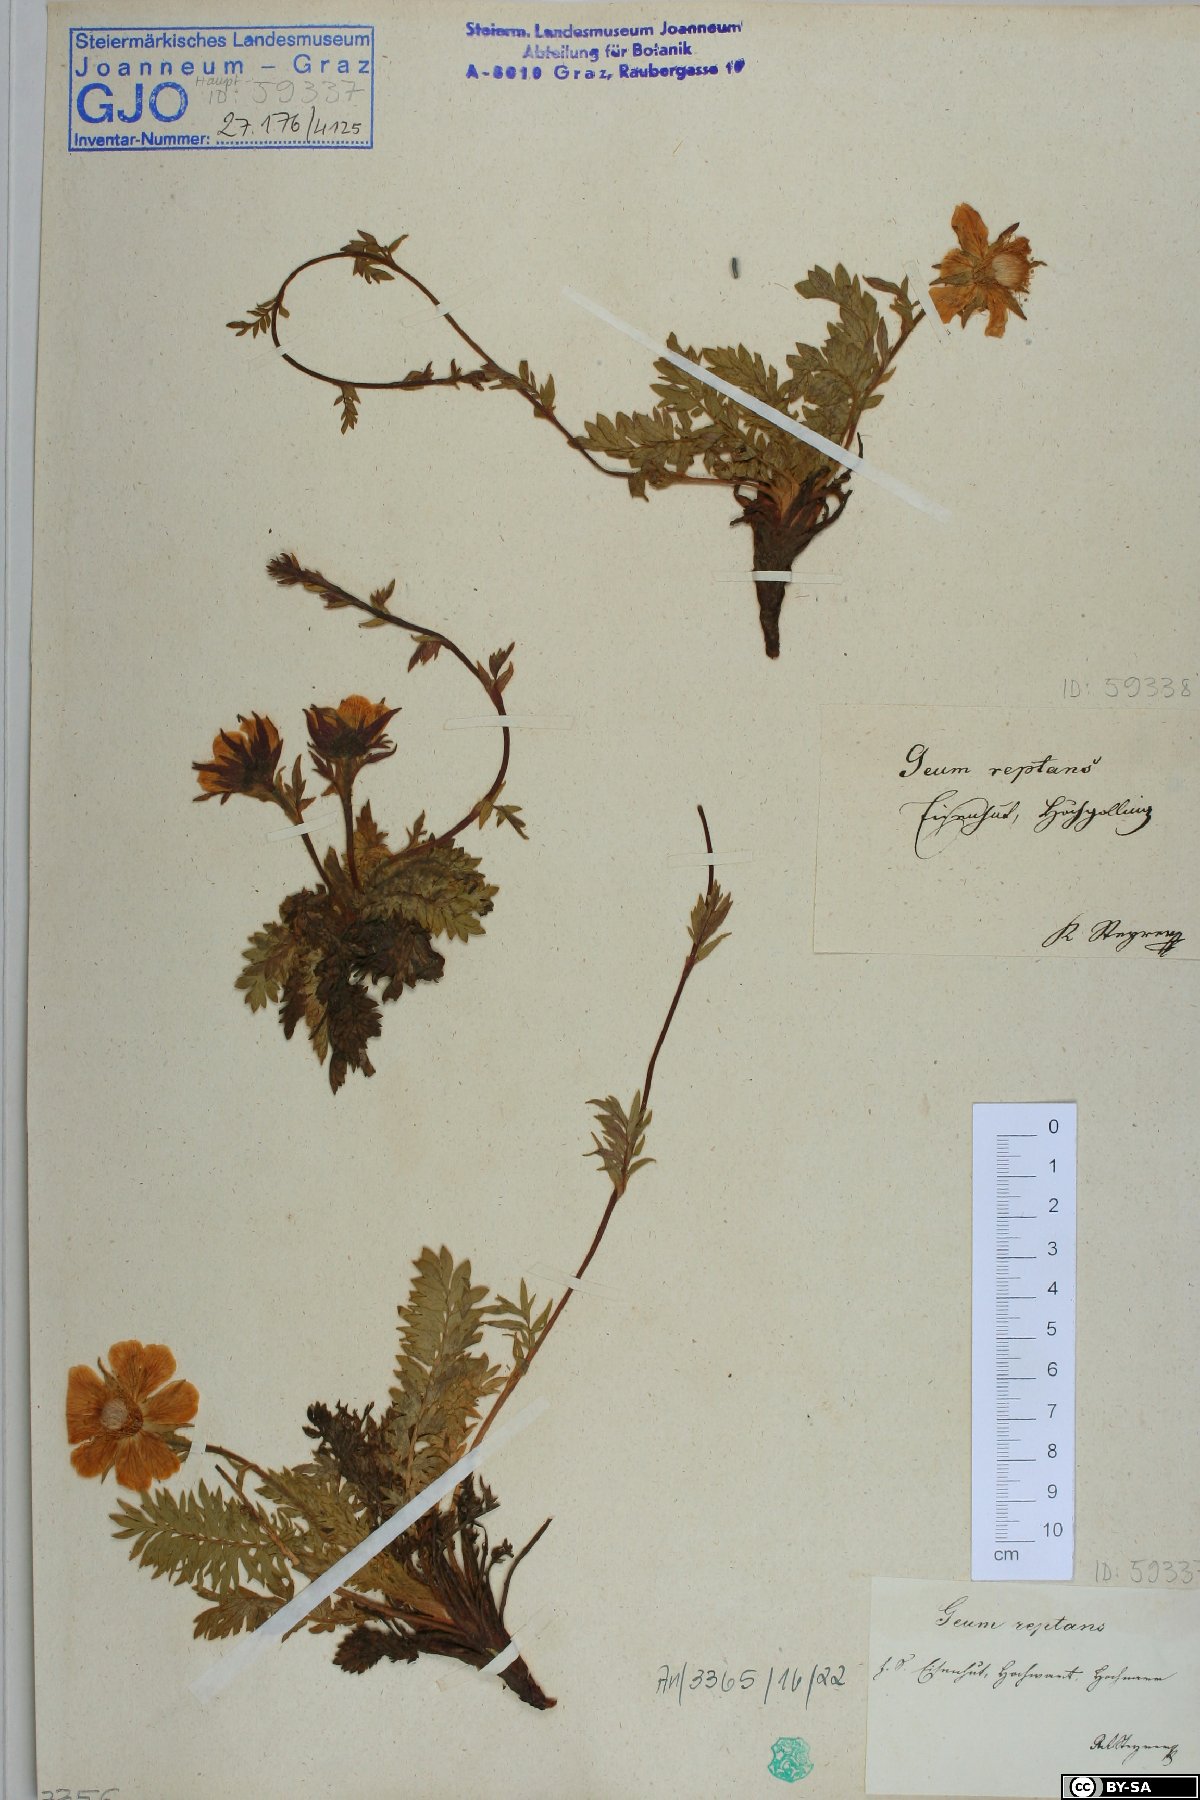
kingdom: Plantae
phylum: Tracheophyta
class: Magnoliopsida
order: Rosales
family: Rosaceae
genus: Geum
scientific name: Geum reptans
